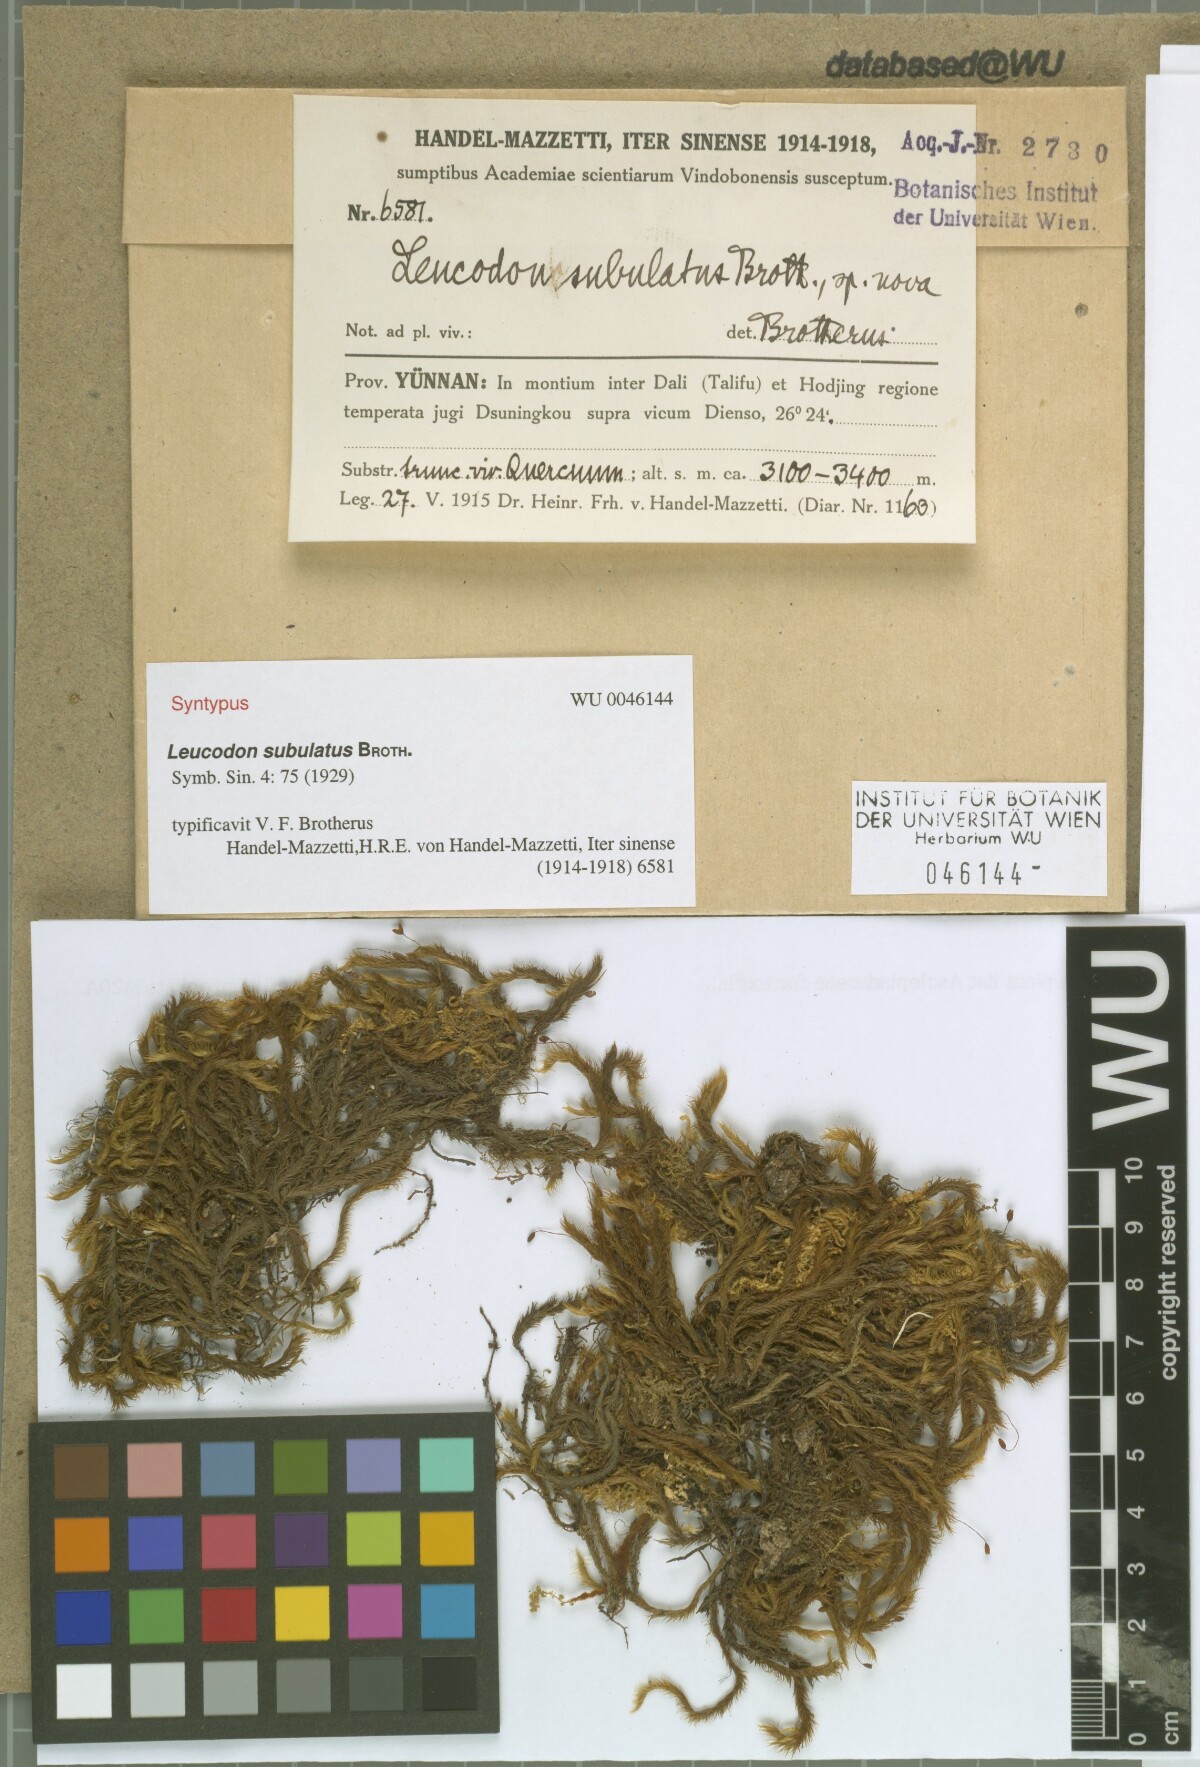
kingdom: Plantae
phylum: Bryophyta
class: Bryopsida
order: Hypnales
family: Leucodontaceae
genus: Leucodon
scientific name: Leucodon subulatus
